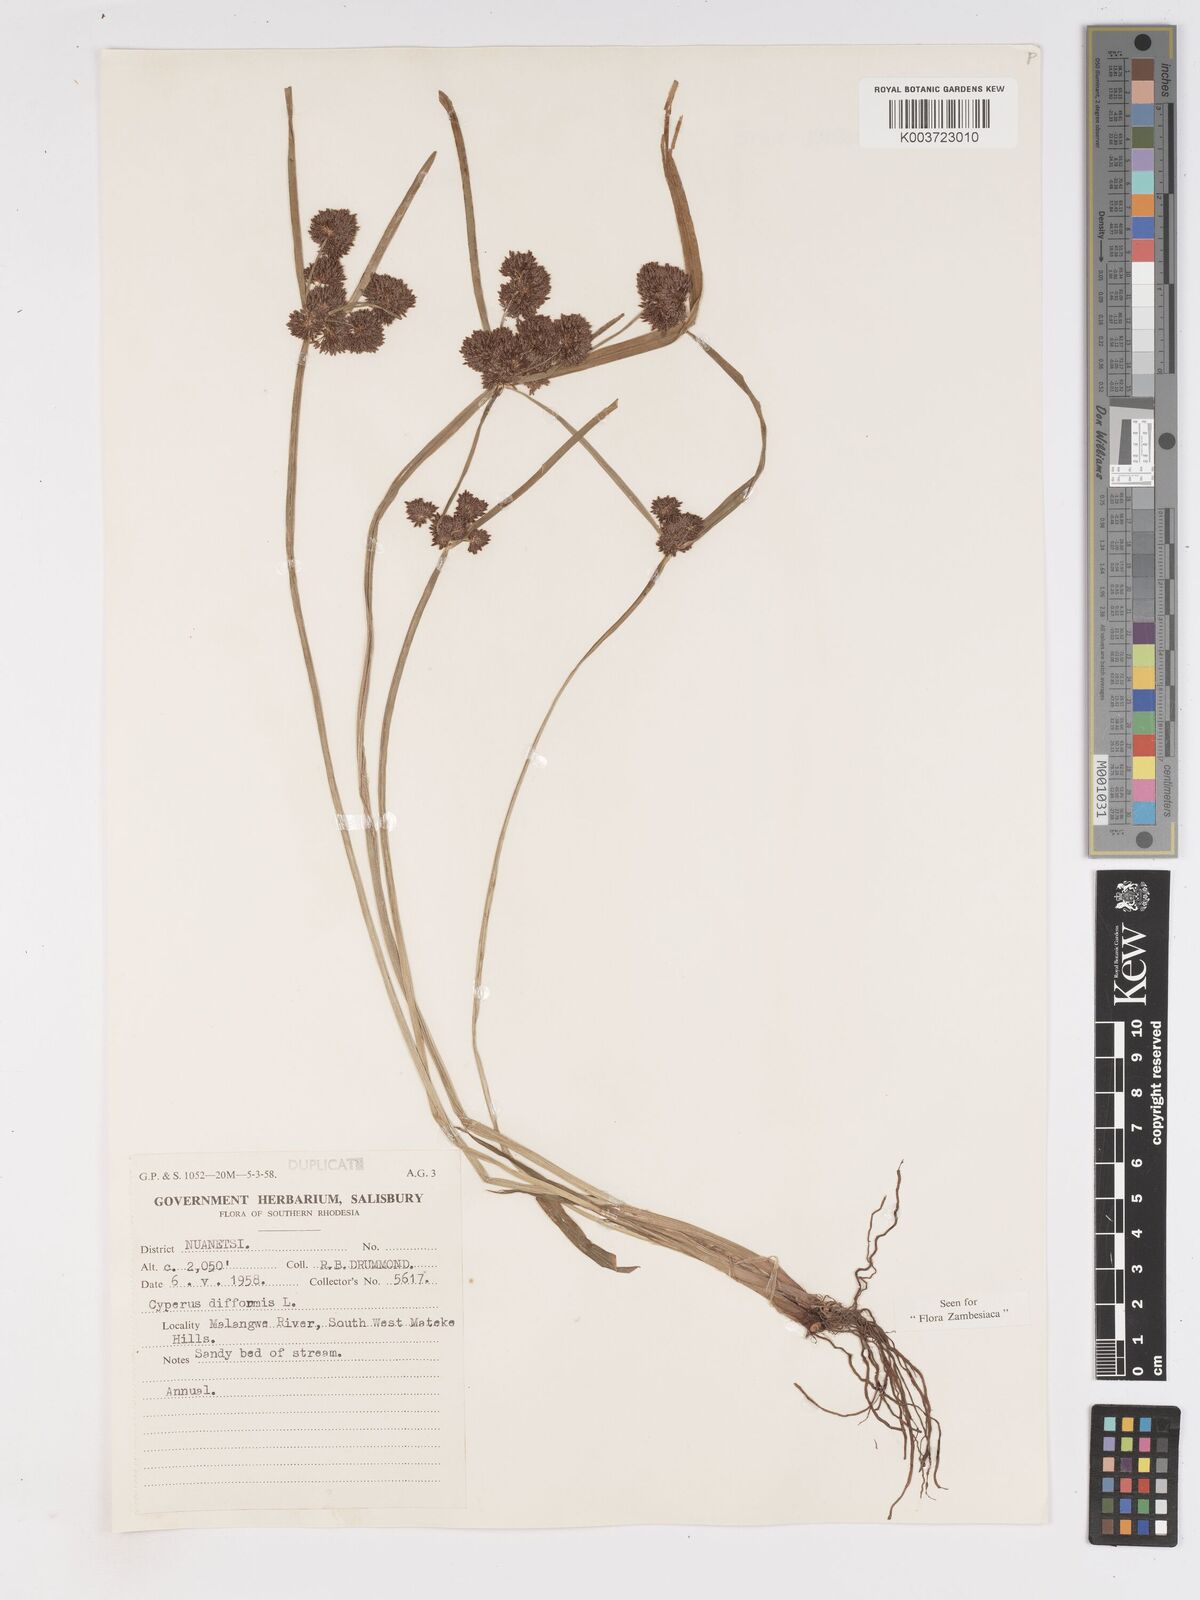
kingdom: Plantae
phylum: Tracheophyta
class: Liliopsida
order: Poales
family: Cyperaceae
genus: Cyperus
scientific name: Cyperus difformis
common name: Variable flatsedge
